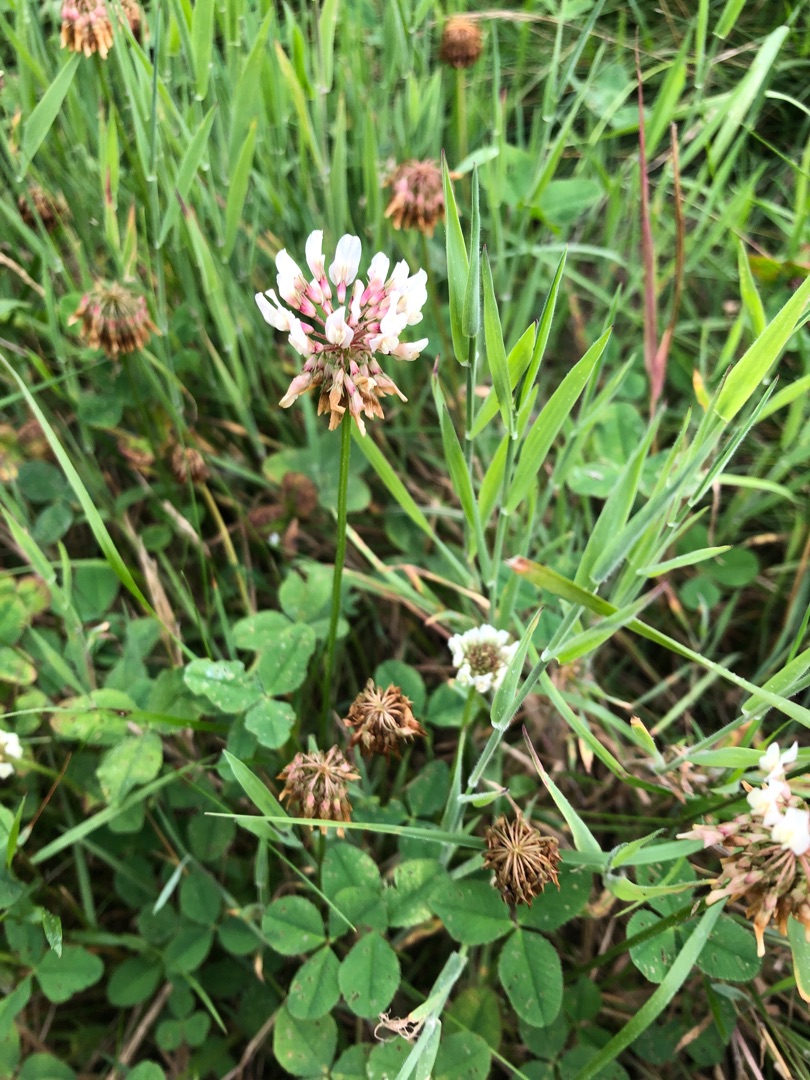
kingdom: Plantae
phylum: Tracheophyta
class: Magnoliopsida
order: Fabales
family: Fabaceae
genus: Trifolium
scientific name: Trifolium repens
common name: Hvid-kløver
